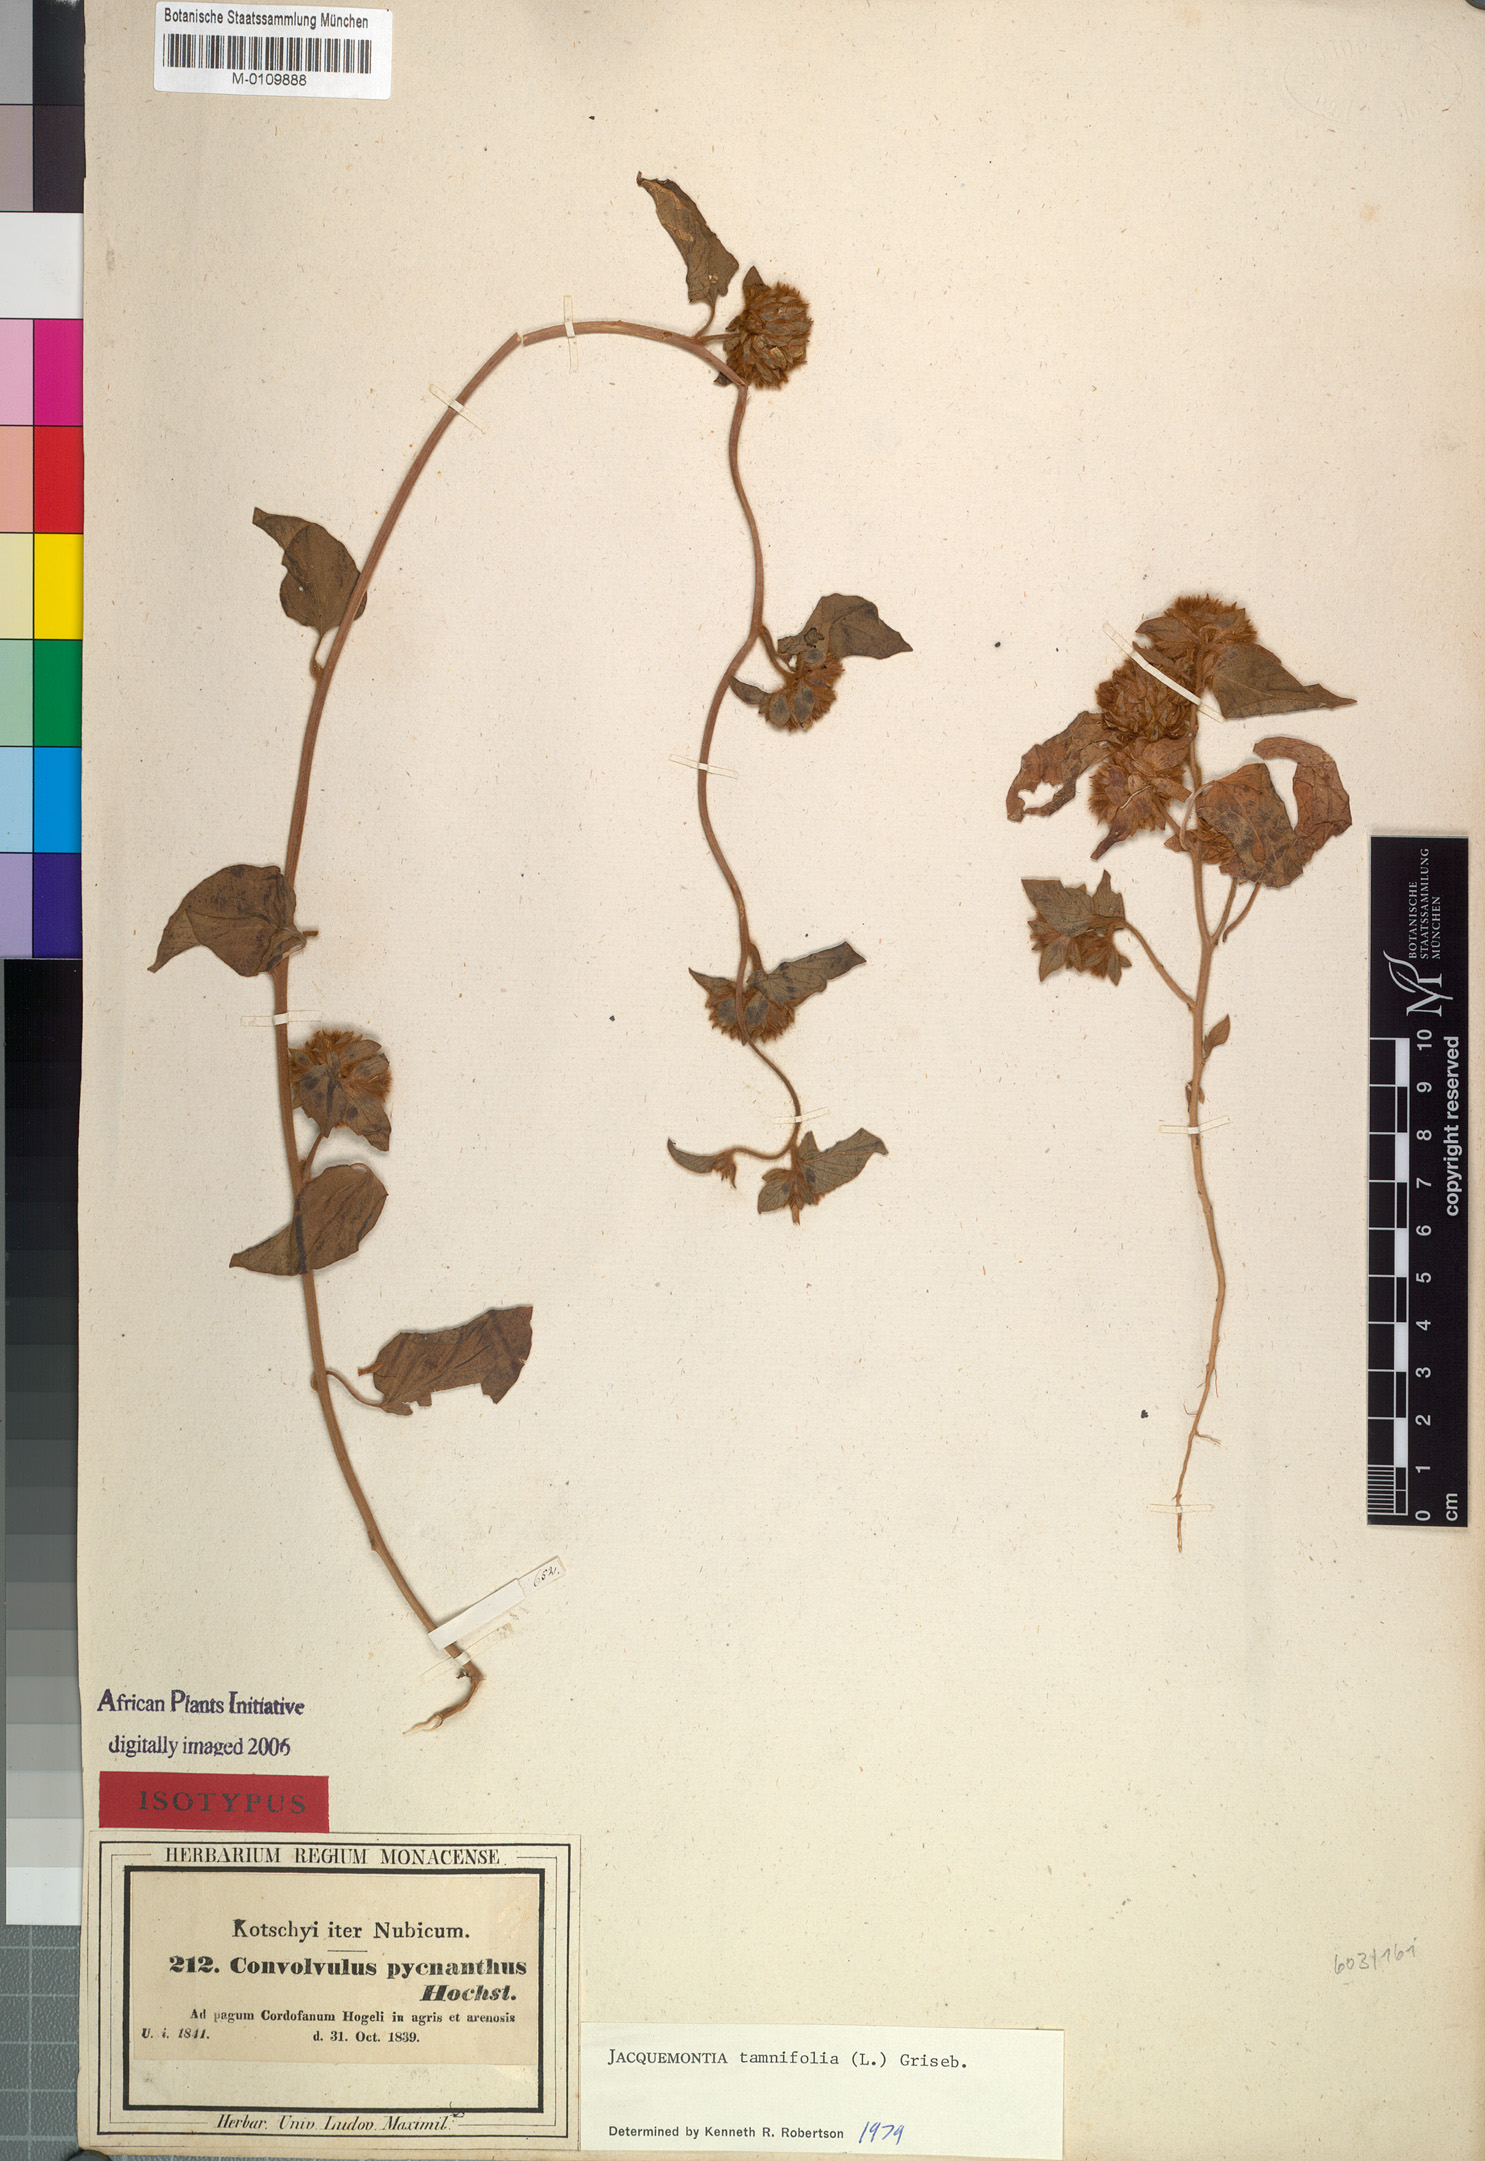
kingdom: Plantae
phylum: Tracheophyta
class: Magnoliopsida
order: Solanales
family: Convolvulaceae
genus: Jacquemontia
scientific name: Jacquemontia tamnifolia
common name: Hairy clustervine
